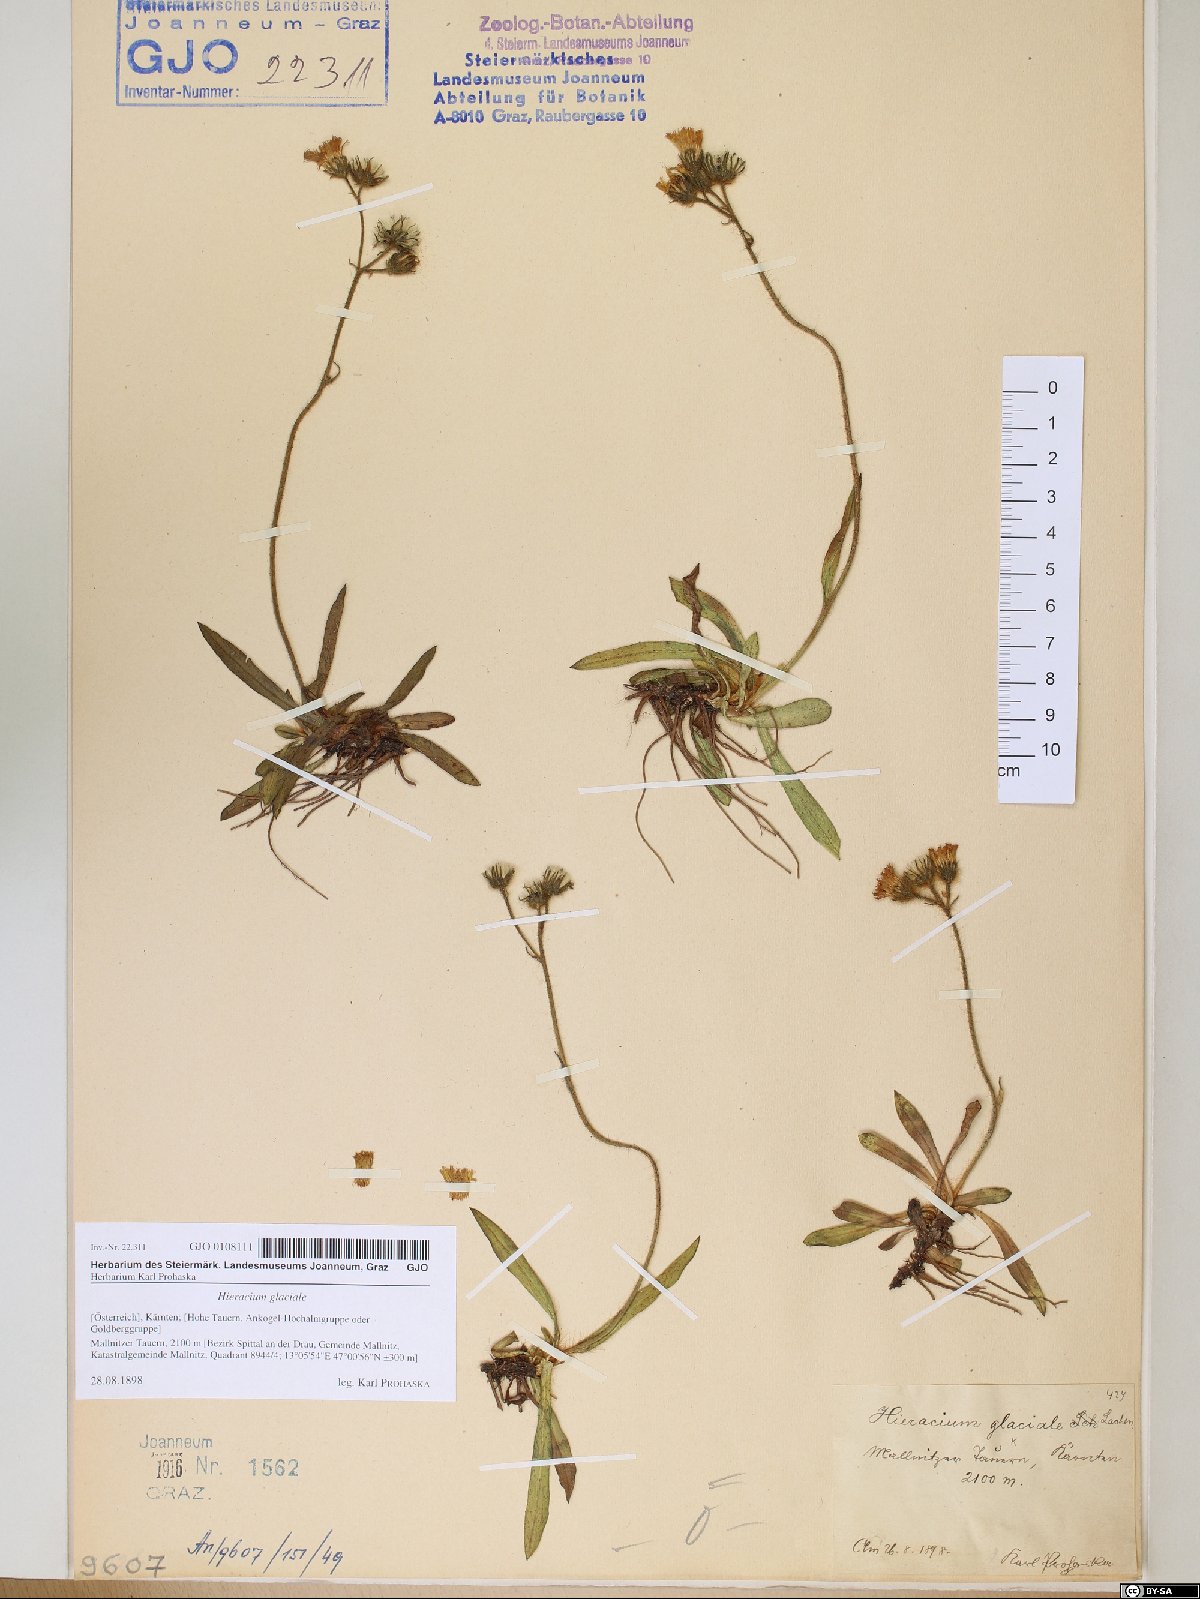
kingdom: Plantae
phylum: Tracheophyta
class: Magnoliopsida
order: Asterales
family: Asteraceae
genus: Pilosella
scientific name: Pilosella glacialis
